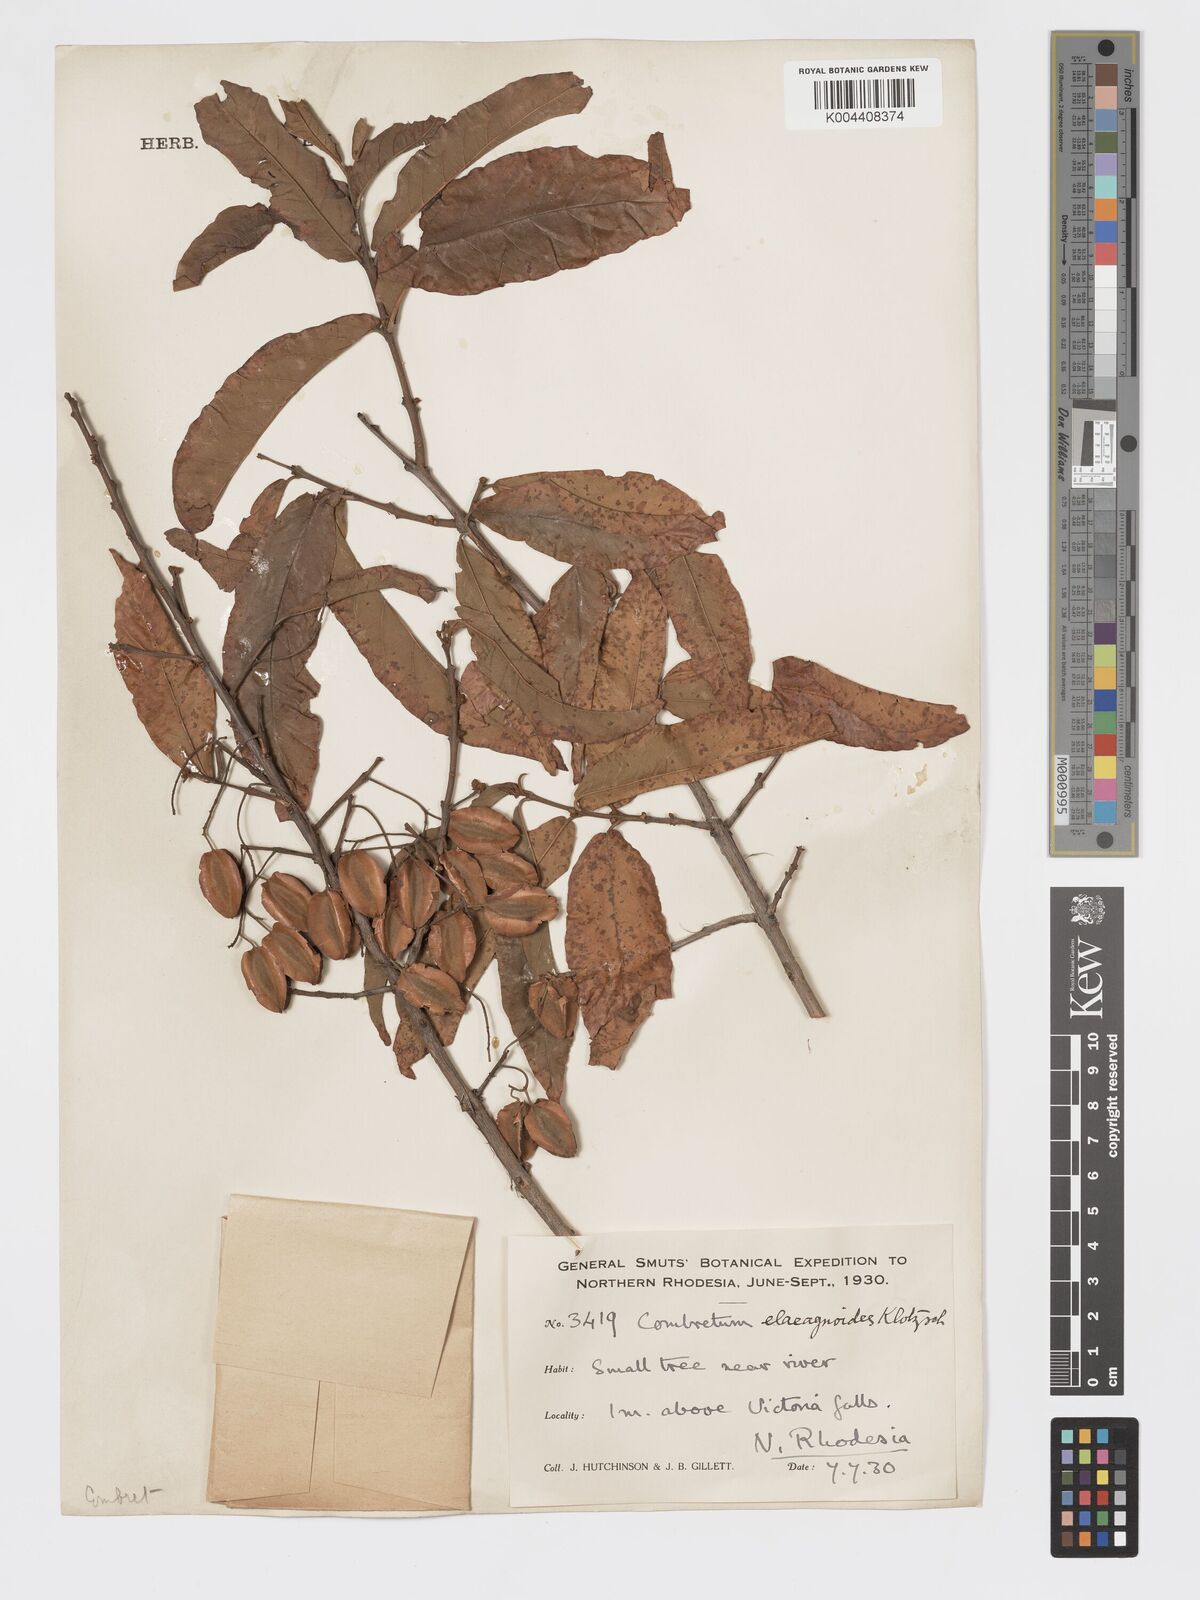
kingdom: Plantae
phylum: Tracheophyta
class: Magnoliopsida
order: Myrtales
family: Combretaceae
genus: Combretum
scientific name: Combretum elaeagnoides
